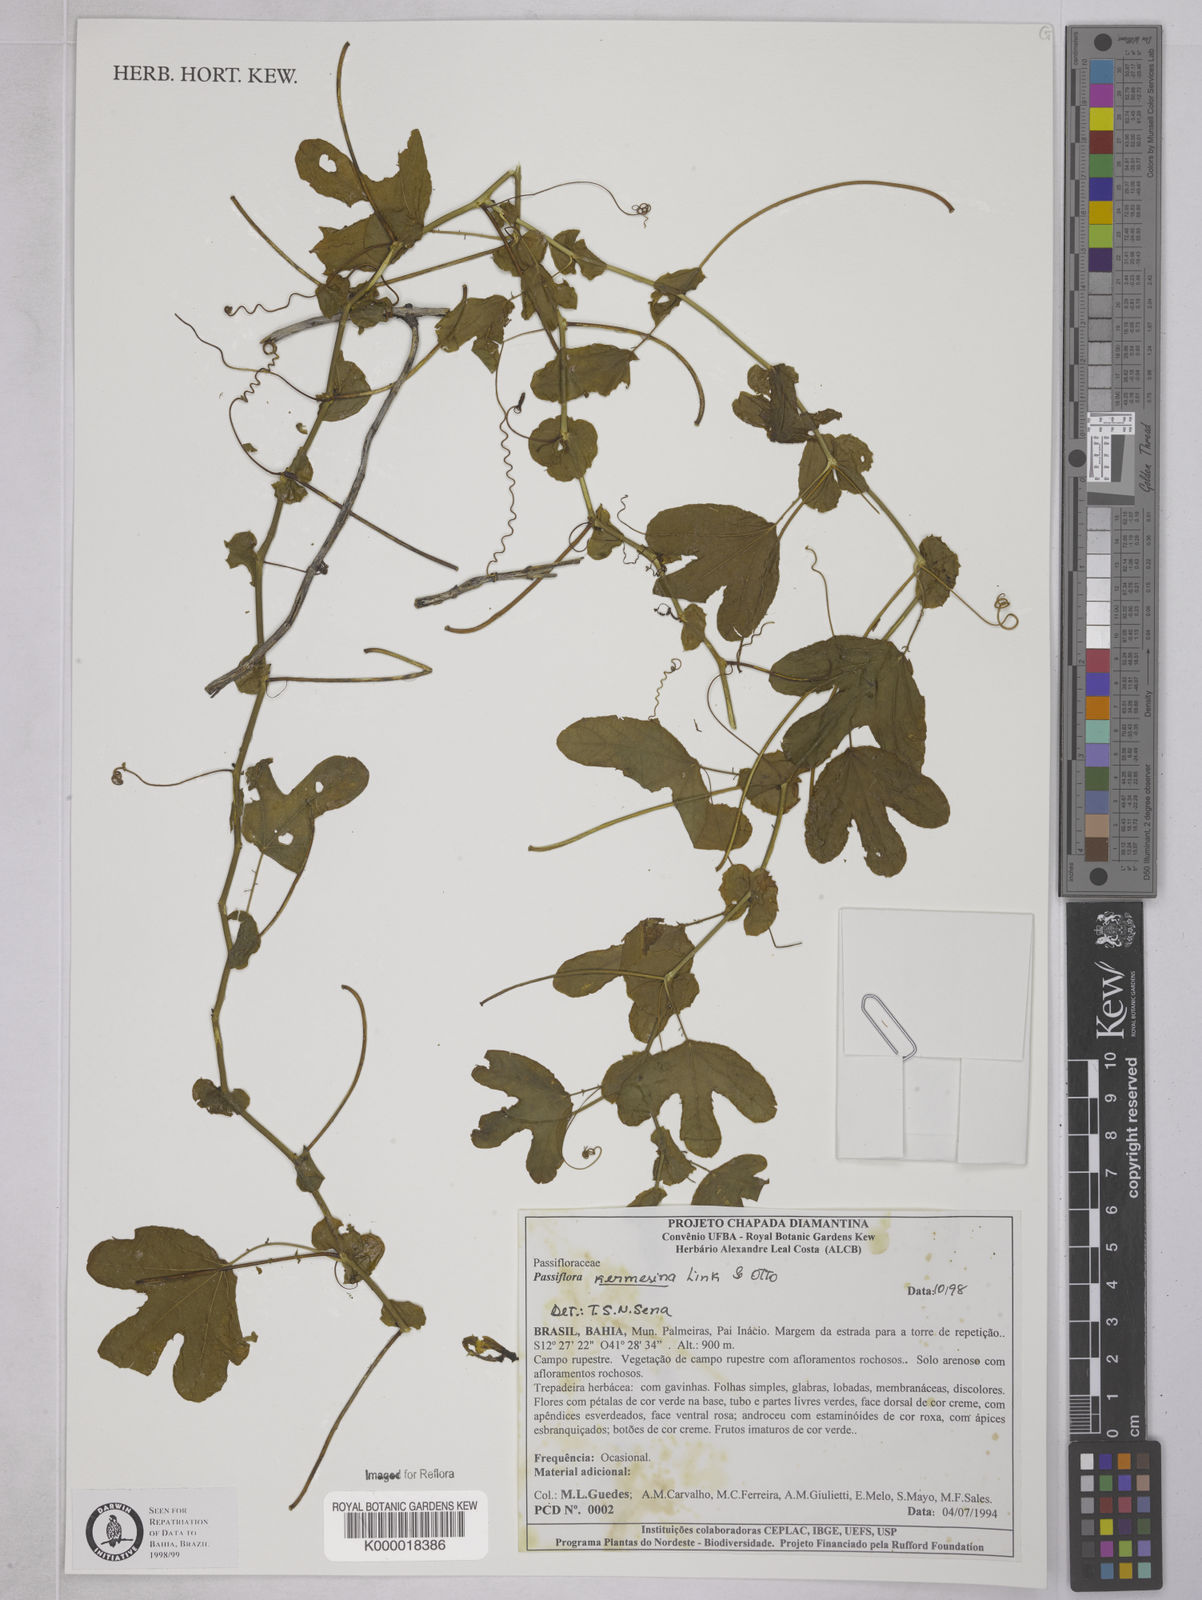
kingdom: Plantae
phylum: Tracheophyta
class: Magnoliopsida
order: Malpighiales
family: Passifloraceae
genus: Passiflora
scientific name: Passiflora kermesina
